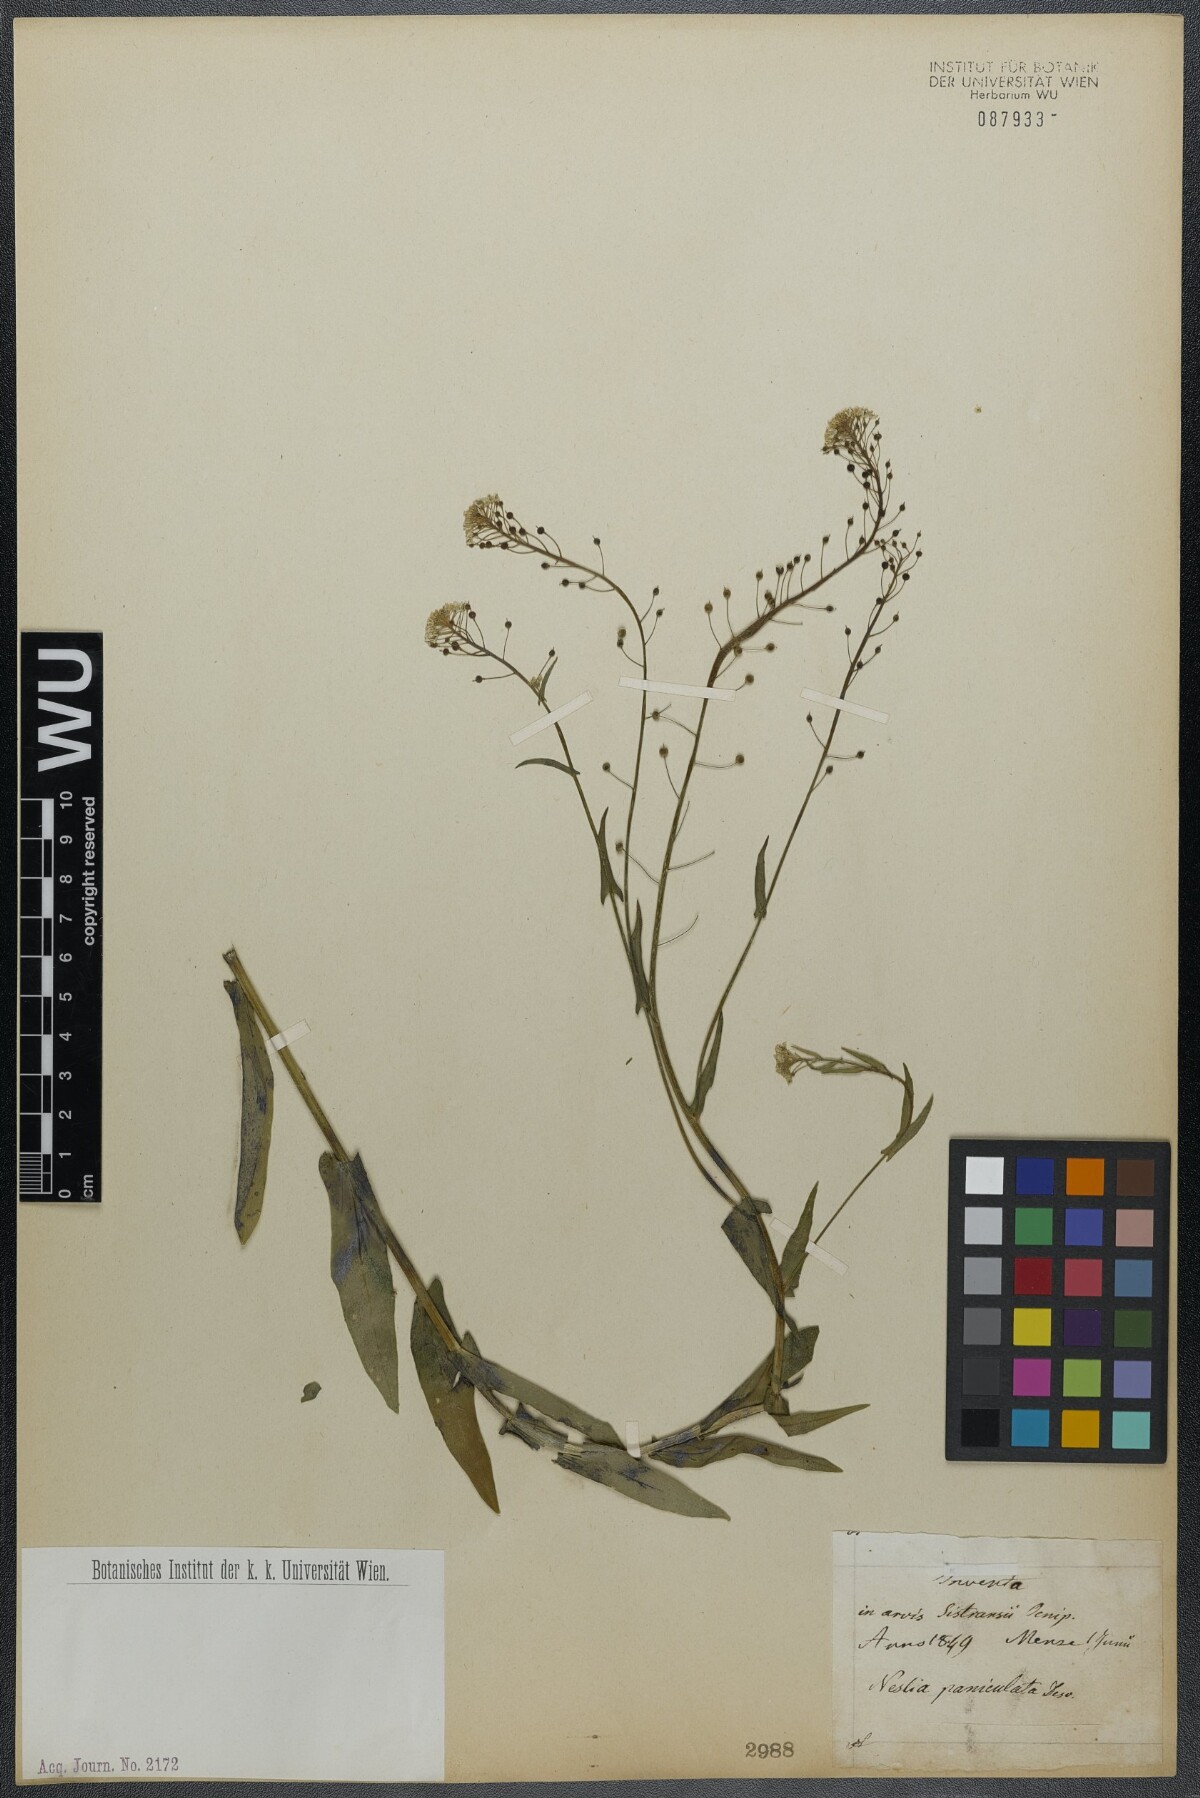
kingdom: Plantae
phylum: Tracheophyta
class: Magnoliopsida
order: Brassicales
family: Brassicaceae
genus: Neslia
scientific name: Neslia paniculata
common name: Ball mustard
